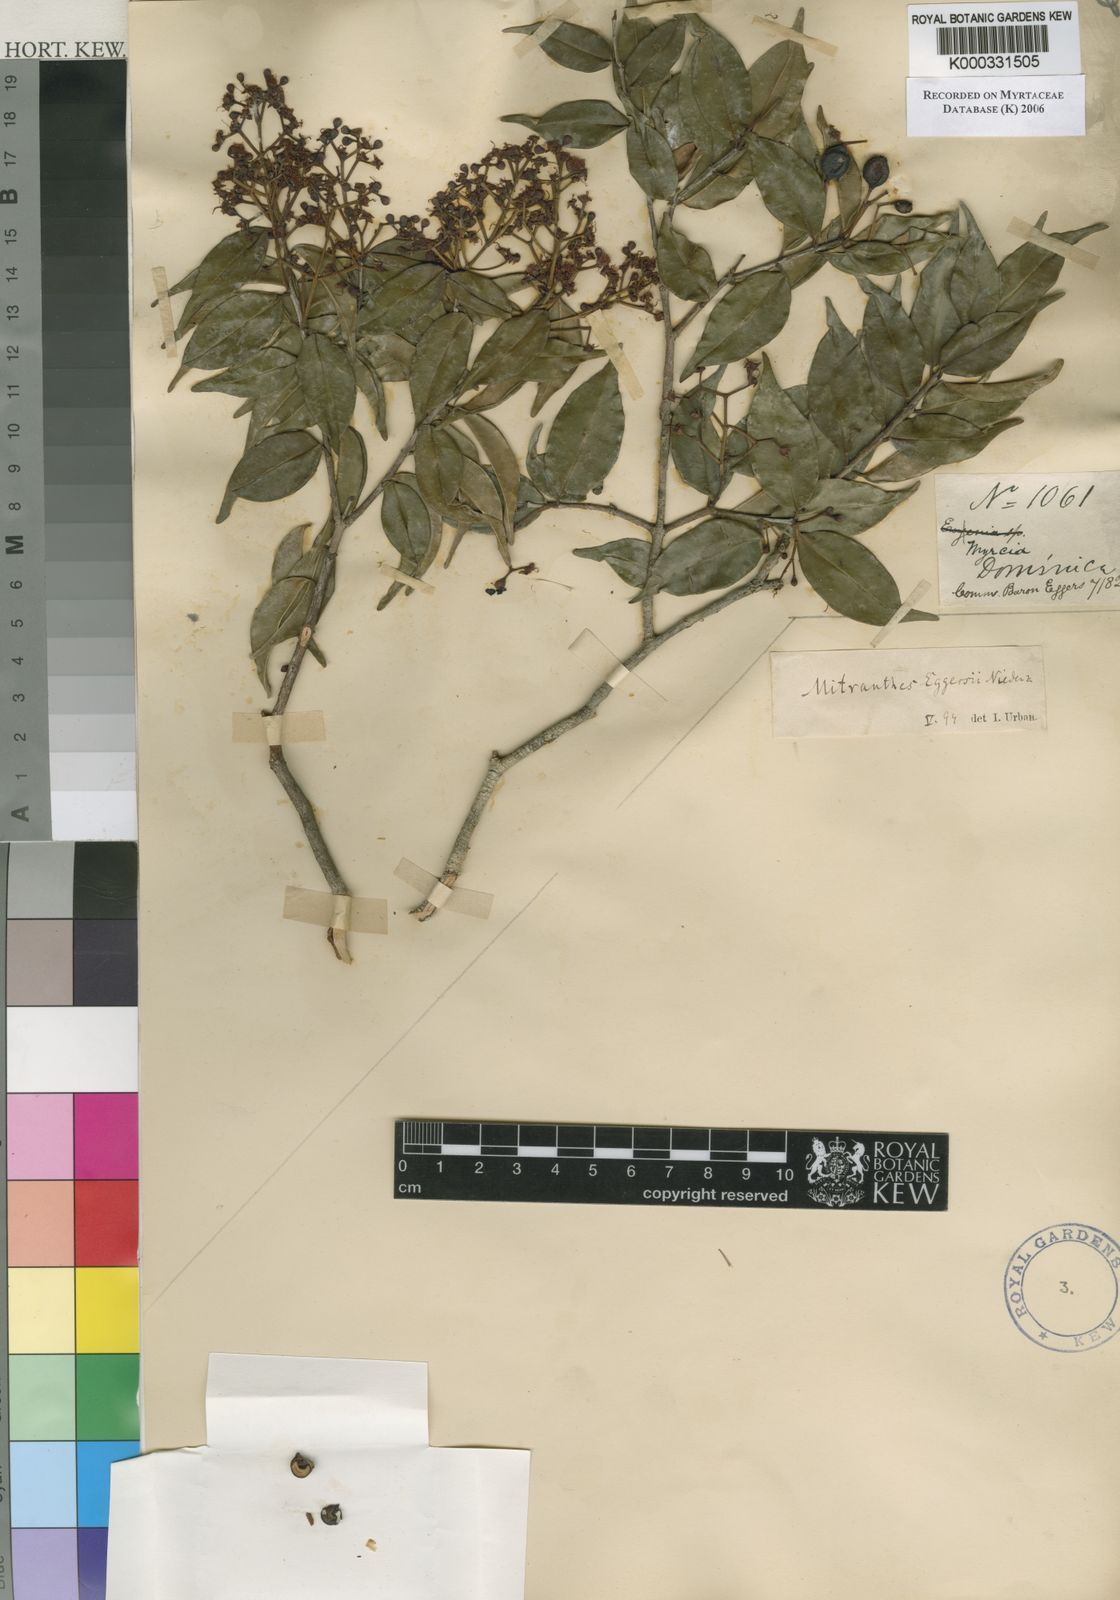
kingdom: Plantae
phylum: Tracheophyta
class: Magnoliopsida
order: Myrtales
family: Myrtaceae
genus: Blepharocalyx
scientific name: Blepharocalyx eggersii
